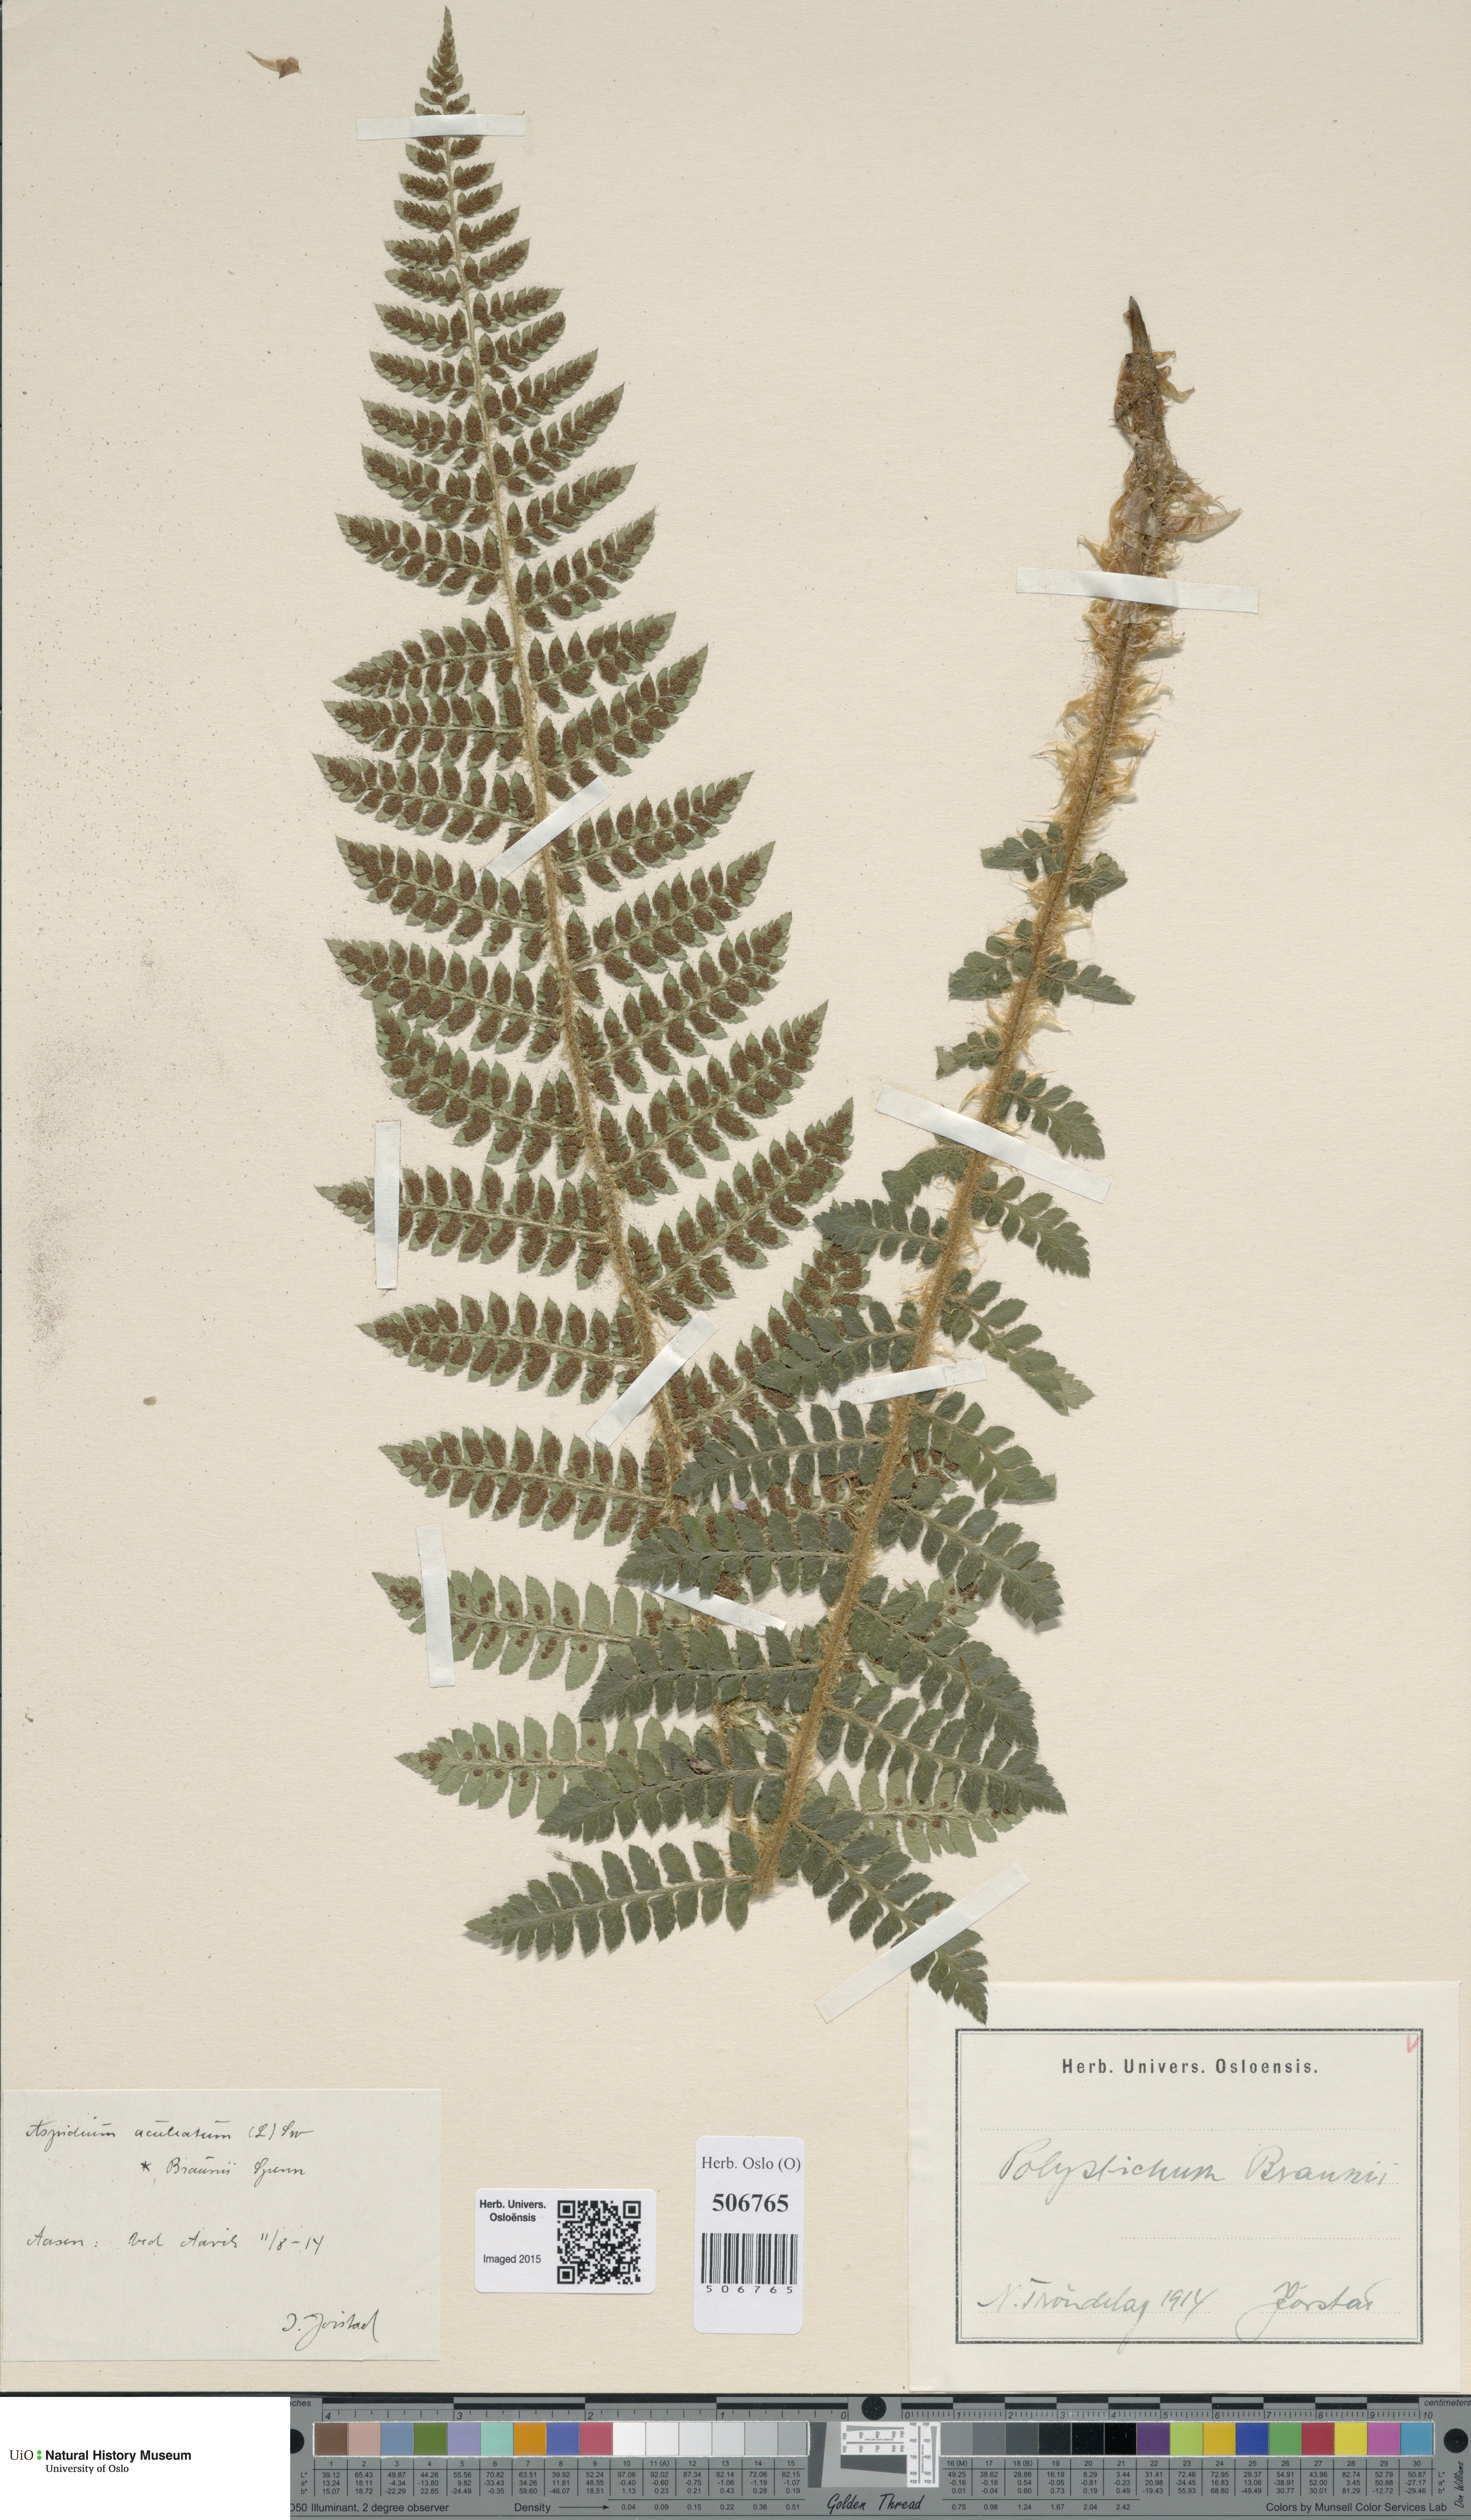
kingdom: Plantae
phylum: Tracheophyta
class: Polypodiopsida
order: Polypodiales
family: Dryopteridaceae
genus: Polystichum
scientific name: Polystichum braunii
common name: Braun's holly fern
